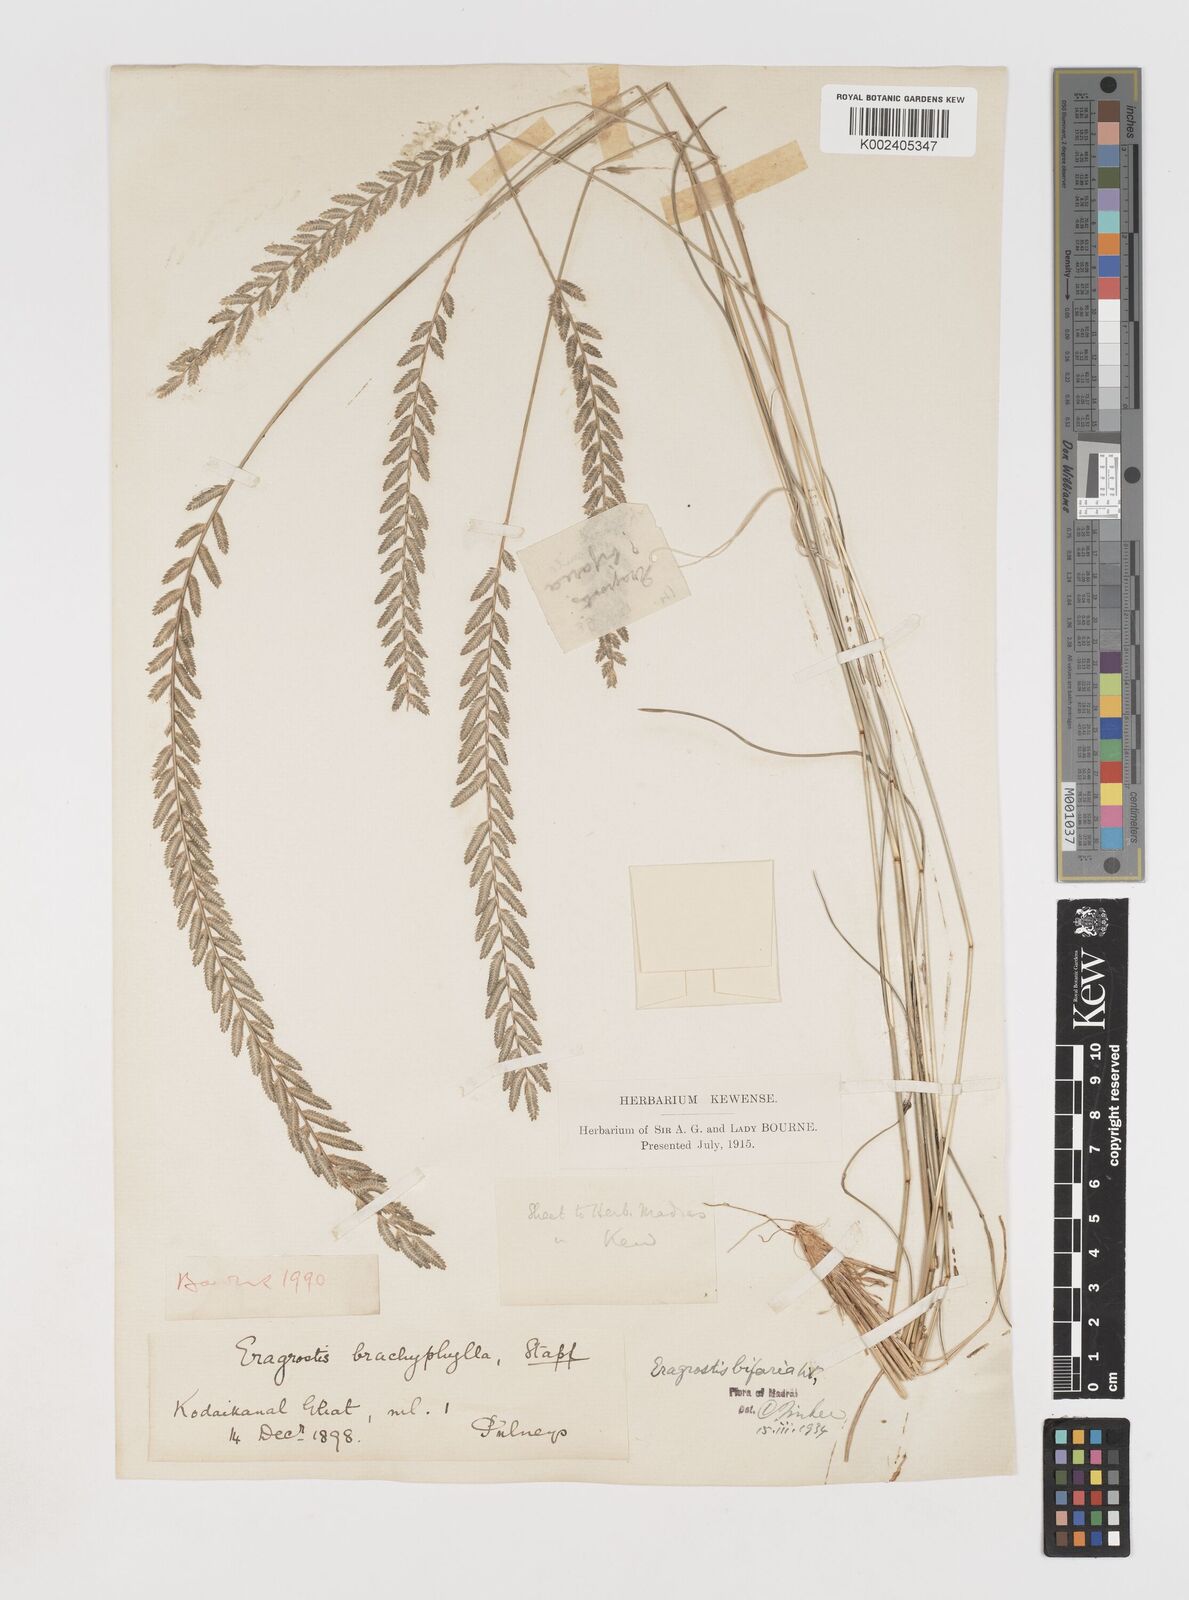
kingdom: Plantae
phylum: Tracheophyta
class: Liliopsida
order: Poales
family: Poaceae
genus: Eragrostiella
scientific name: Eragrostiella bifaria
